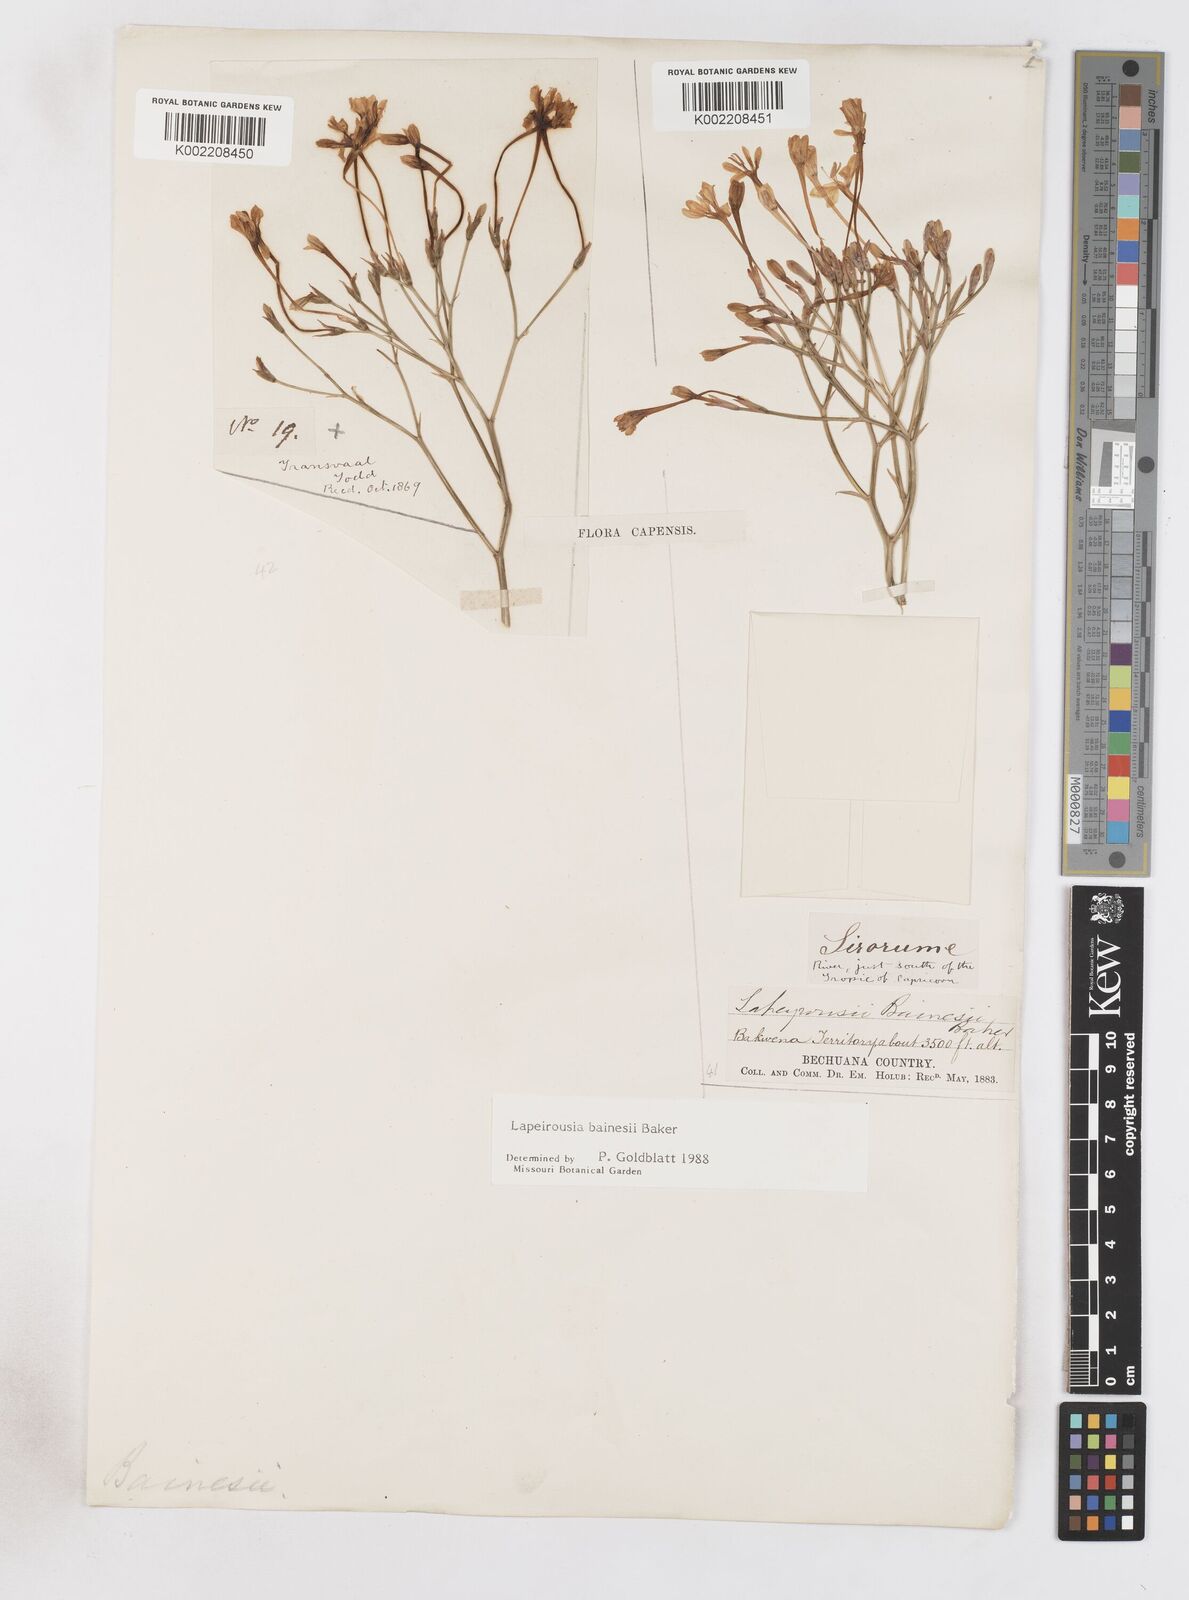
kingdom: Plantae
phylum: Tracheophyta
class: Liliopsida
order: Asparagales
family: Iridaceae
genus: Afrosolen
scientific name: Afrosolen erythranthus
